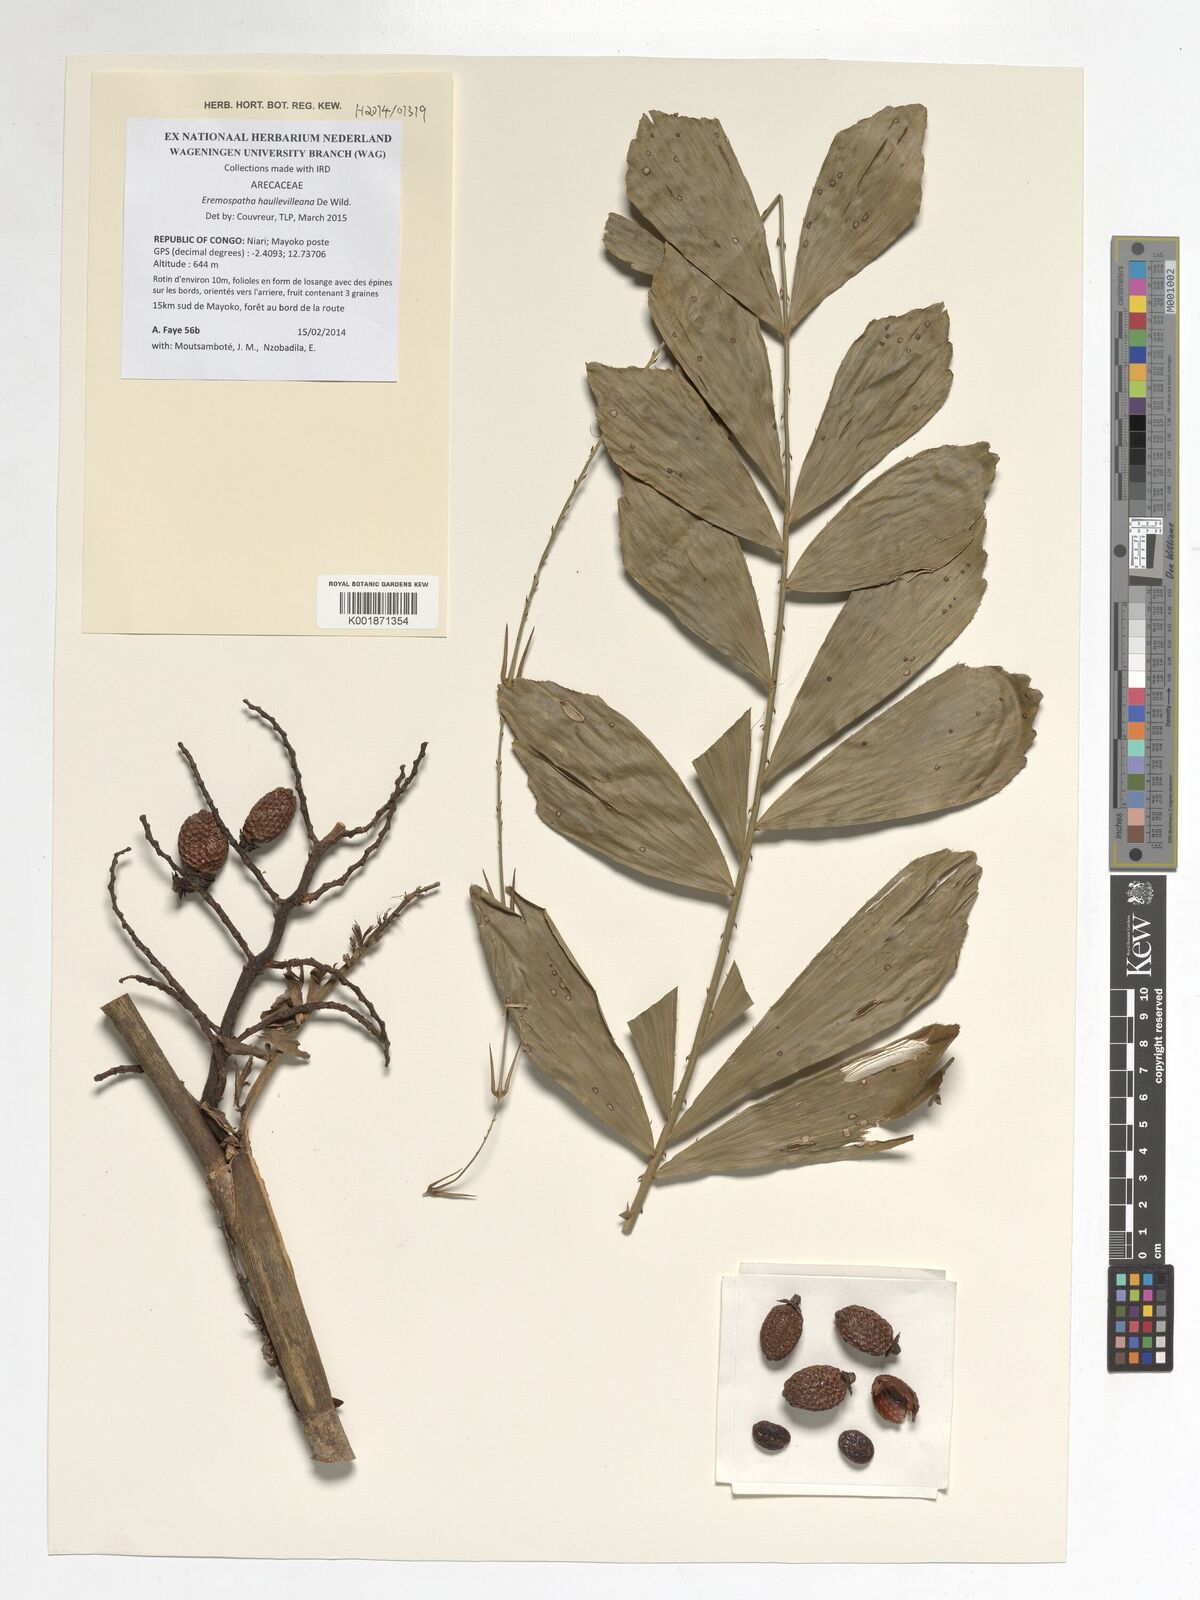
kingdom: Plantae
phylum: Tracheophyta
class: Liliopsida
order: Arecales
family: Arecaceae
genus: Eremospatha
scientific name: Eremospatha haullevilleana
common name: Rattan
